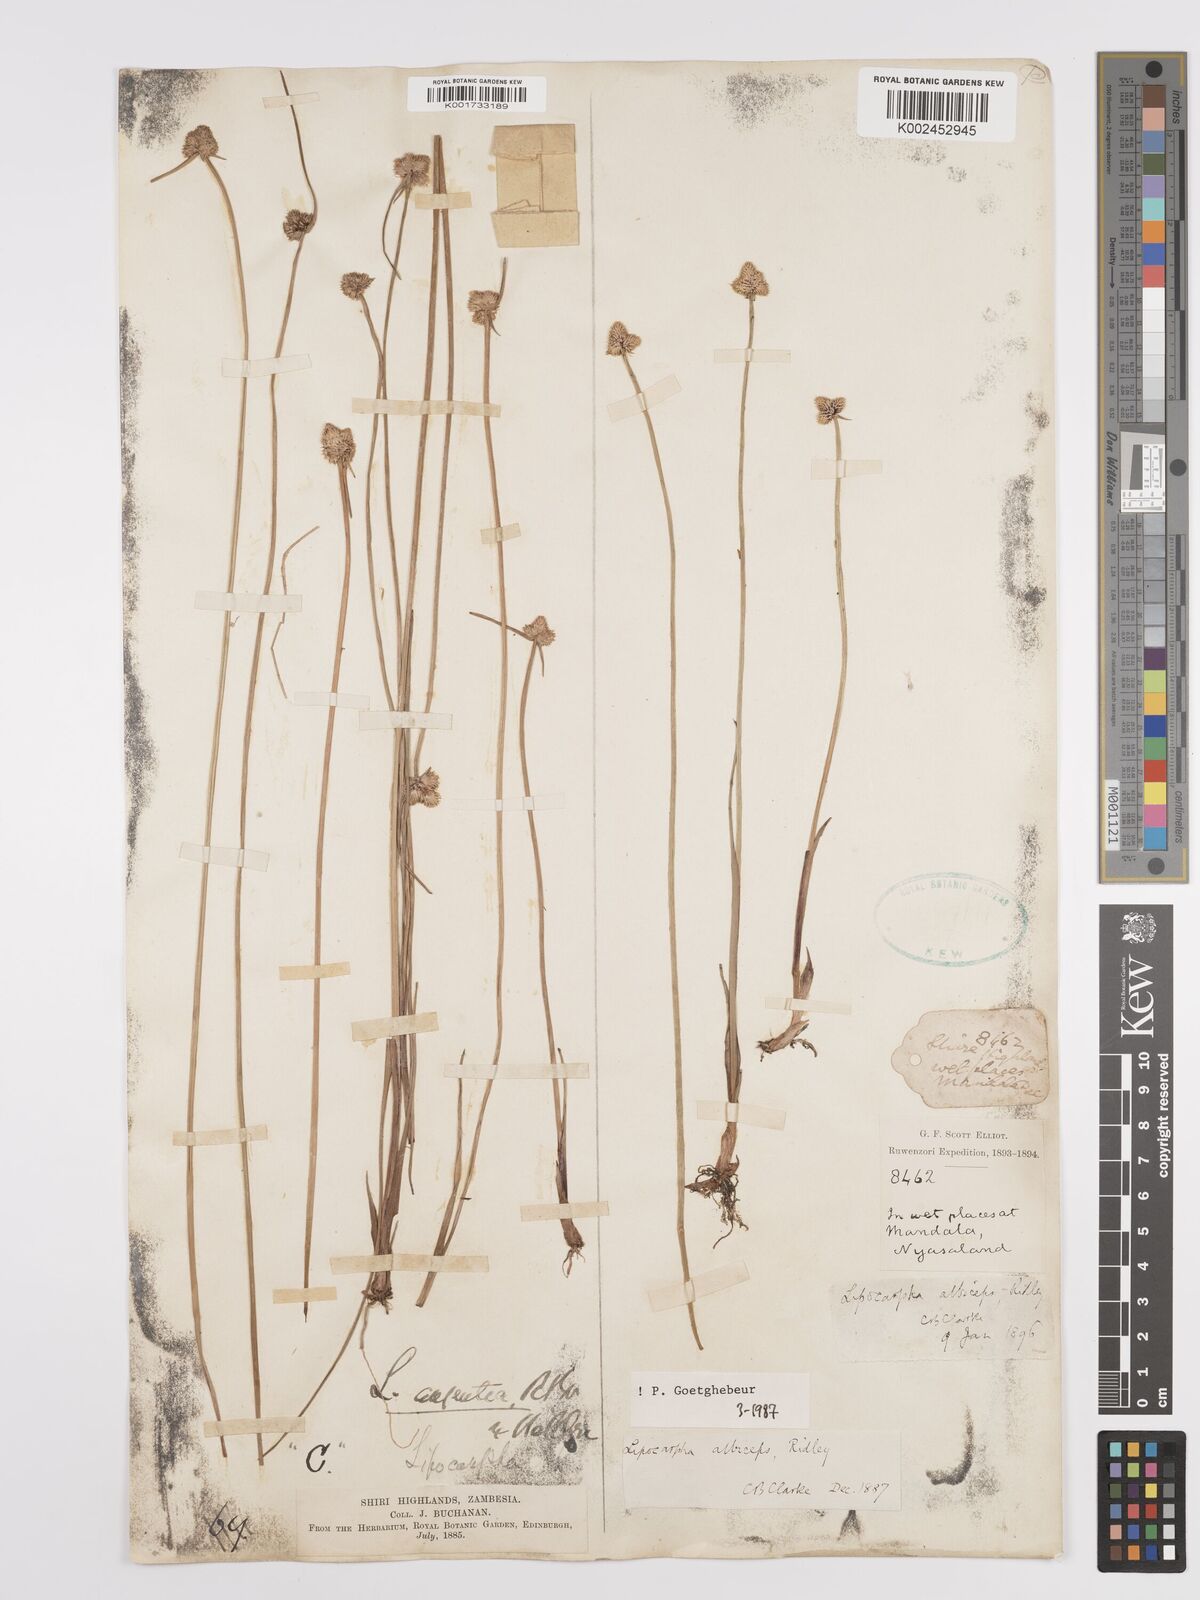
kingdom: Plantae
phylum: Tracheophyta
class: Liliopsida
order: Poales
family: Cyperaceae
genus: Cyperus
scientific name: Cyperus albiceps
